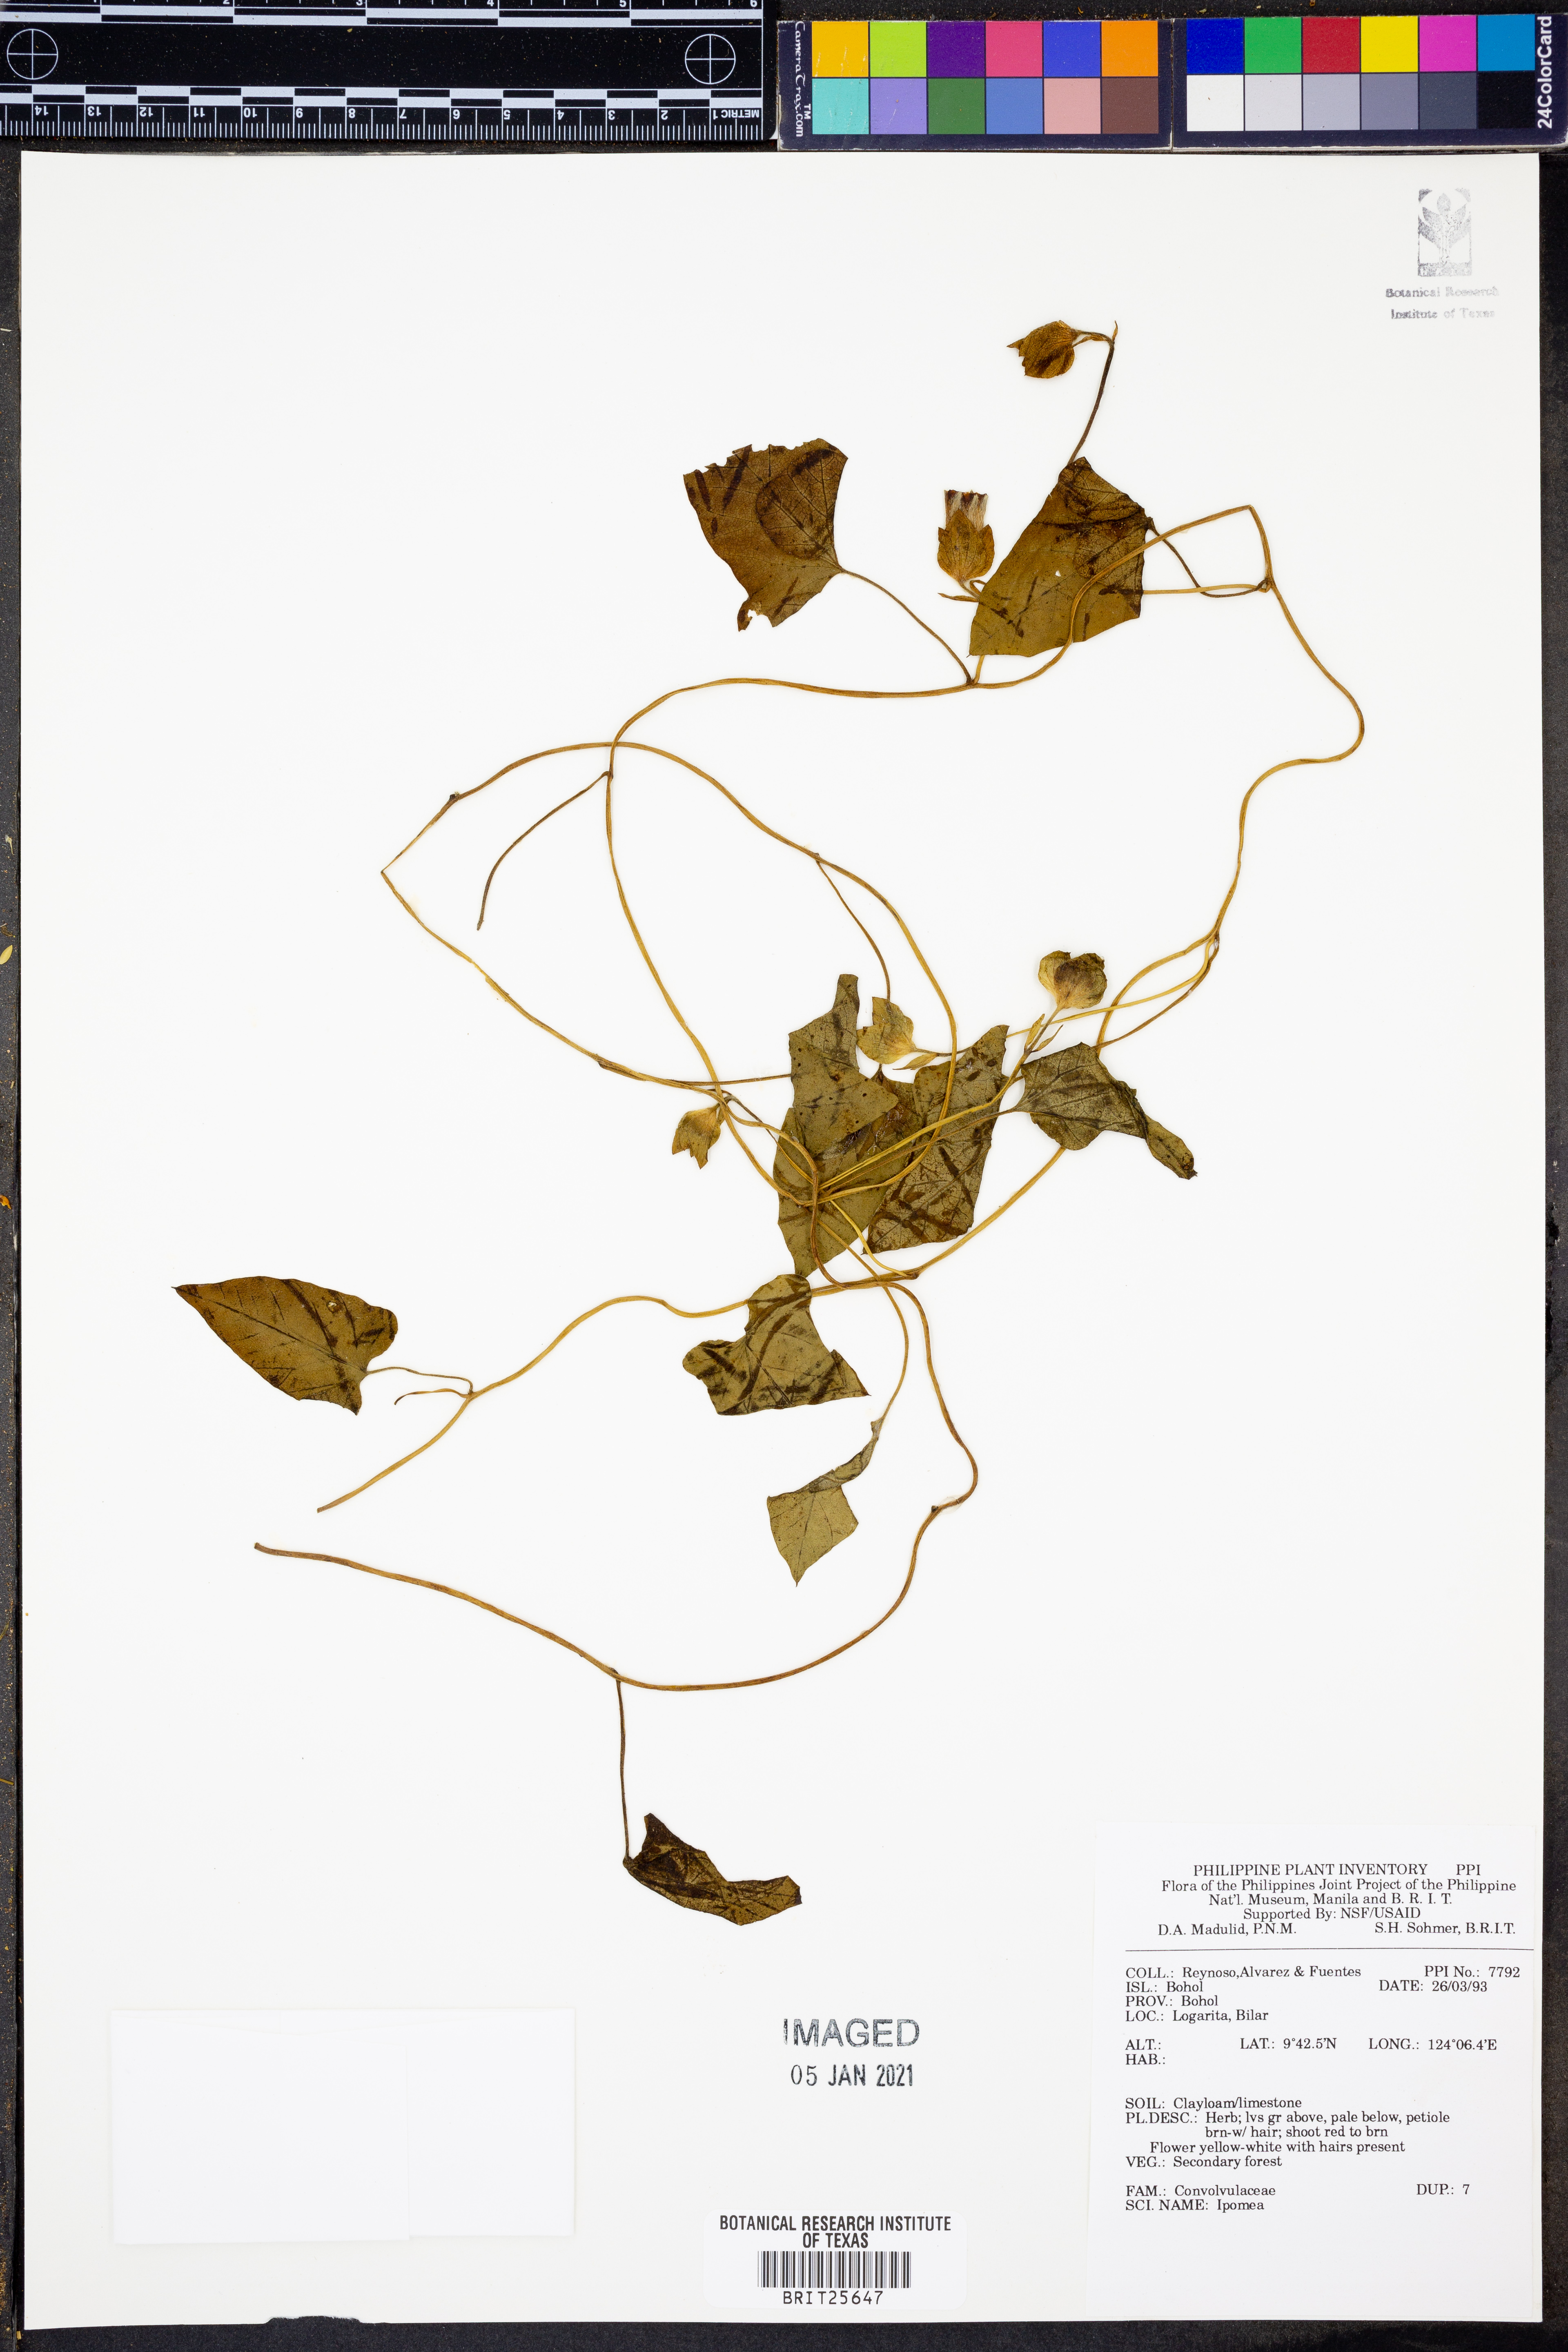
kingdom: Plantae
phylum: Tracheophyta
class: Magnoliopsida
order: Solanales
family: Convolvulaceae
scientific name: Convolvulaceae
